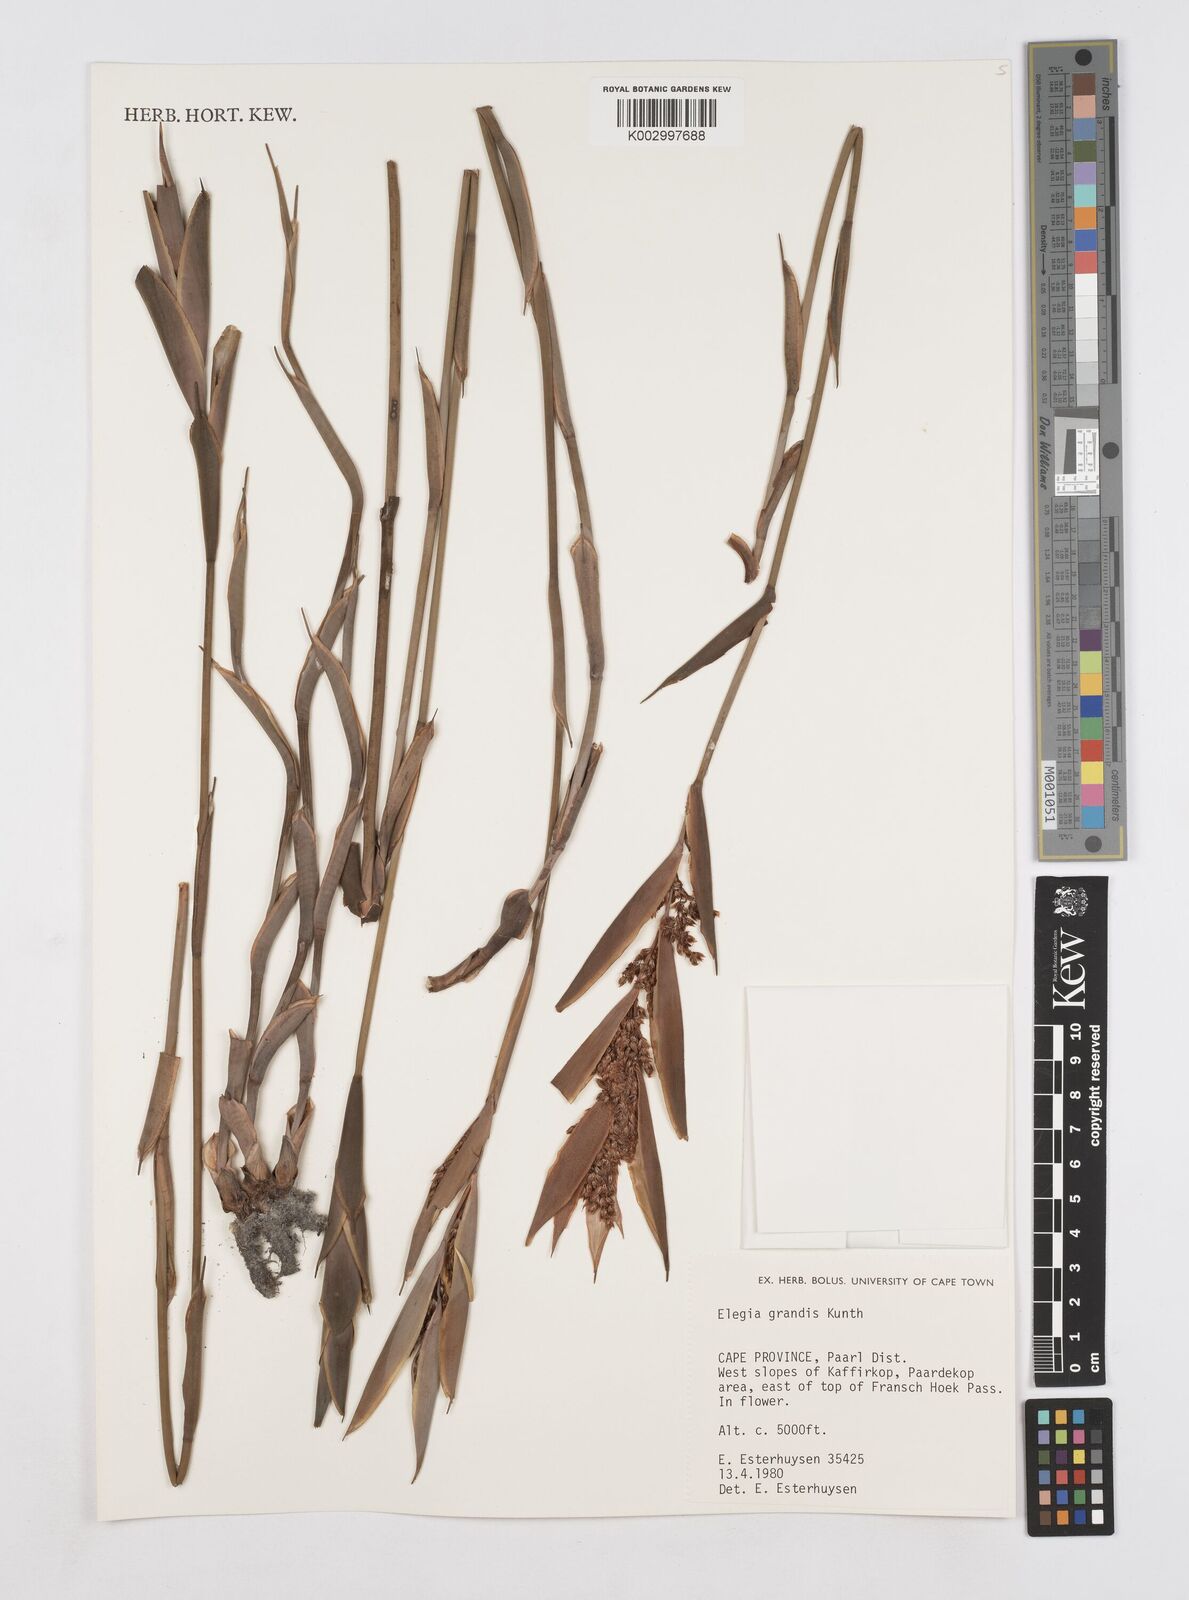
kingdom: Plantae
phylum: Tracheophyta
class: Liliopsida
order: Poales
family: Restionaceae
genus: Elegia
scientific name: Elegia grandis
